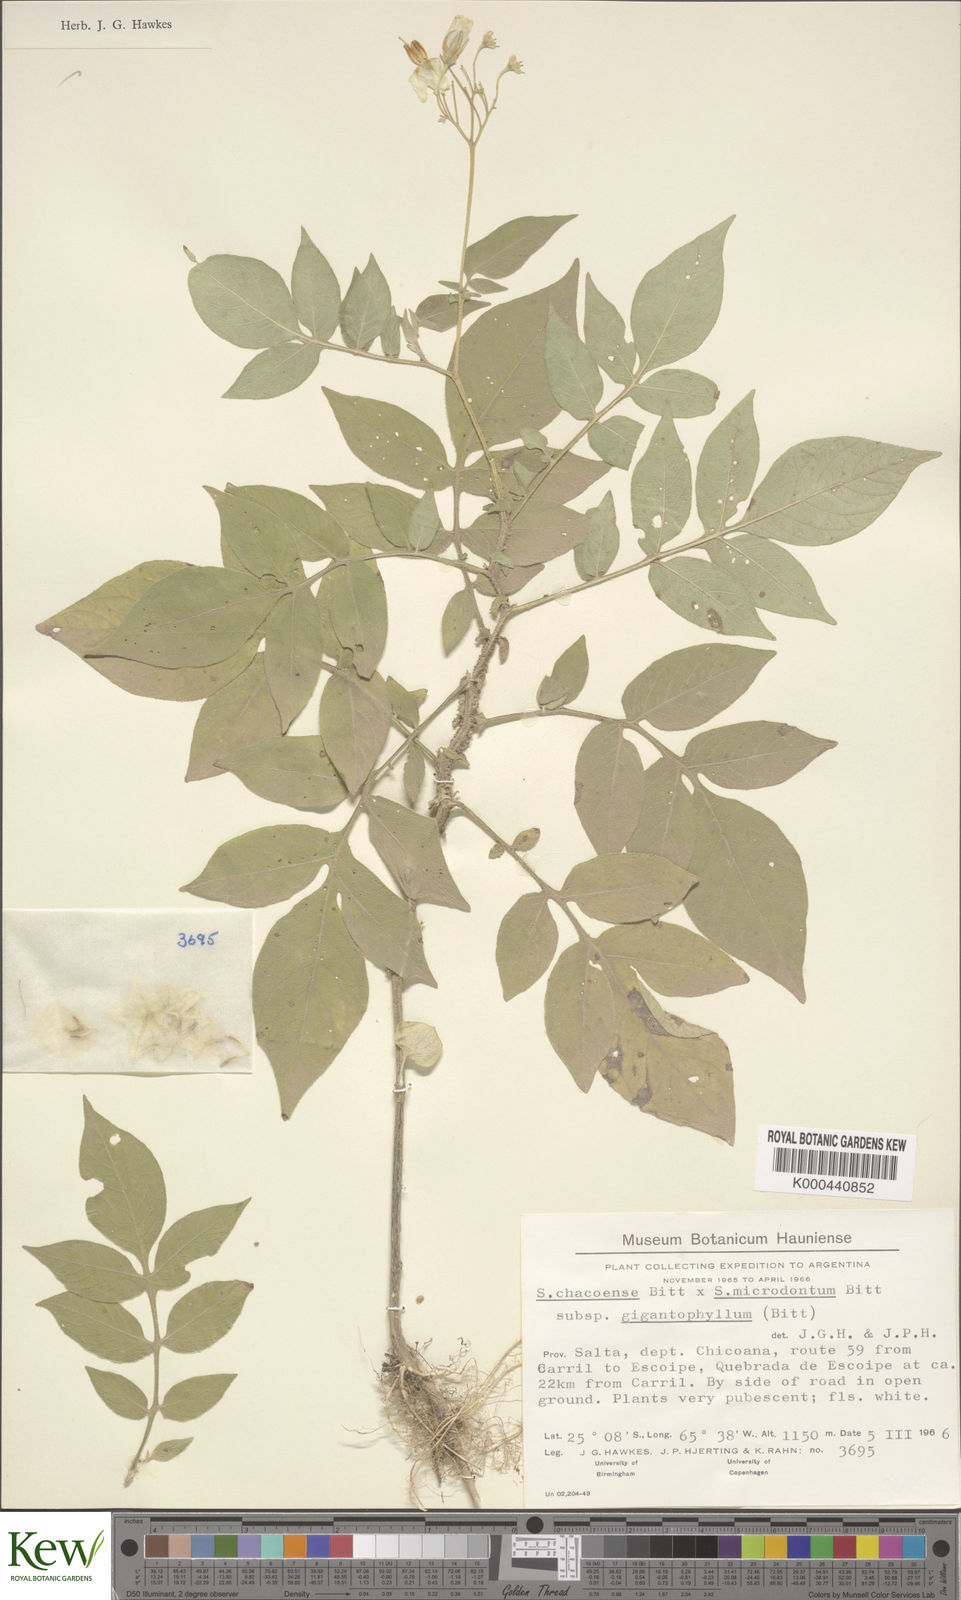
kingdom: Plantae
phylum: Tracheophyta
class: Magnoliopsida
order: Solanales
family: Solanaceae
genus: Solanum
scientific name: Solanum microdontum
